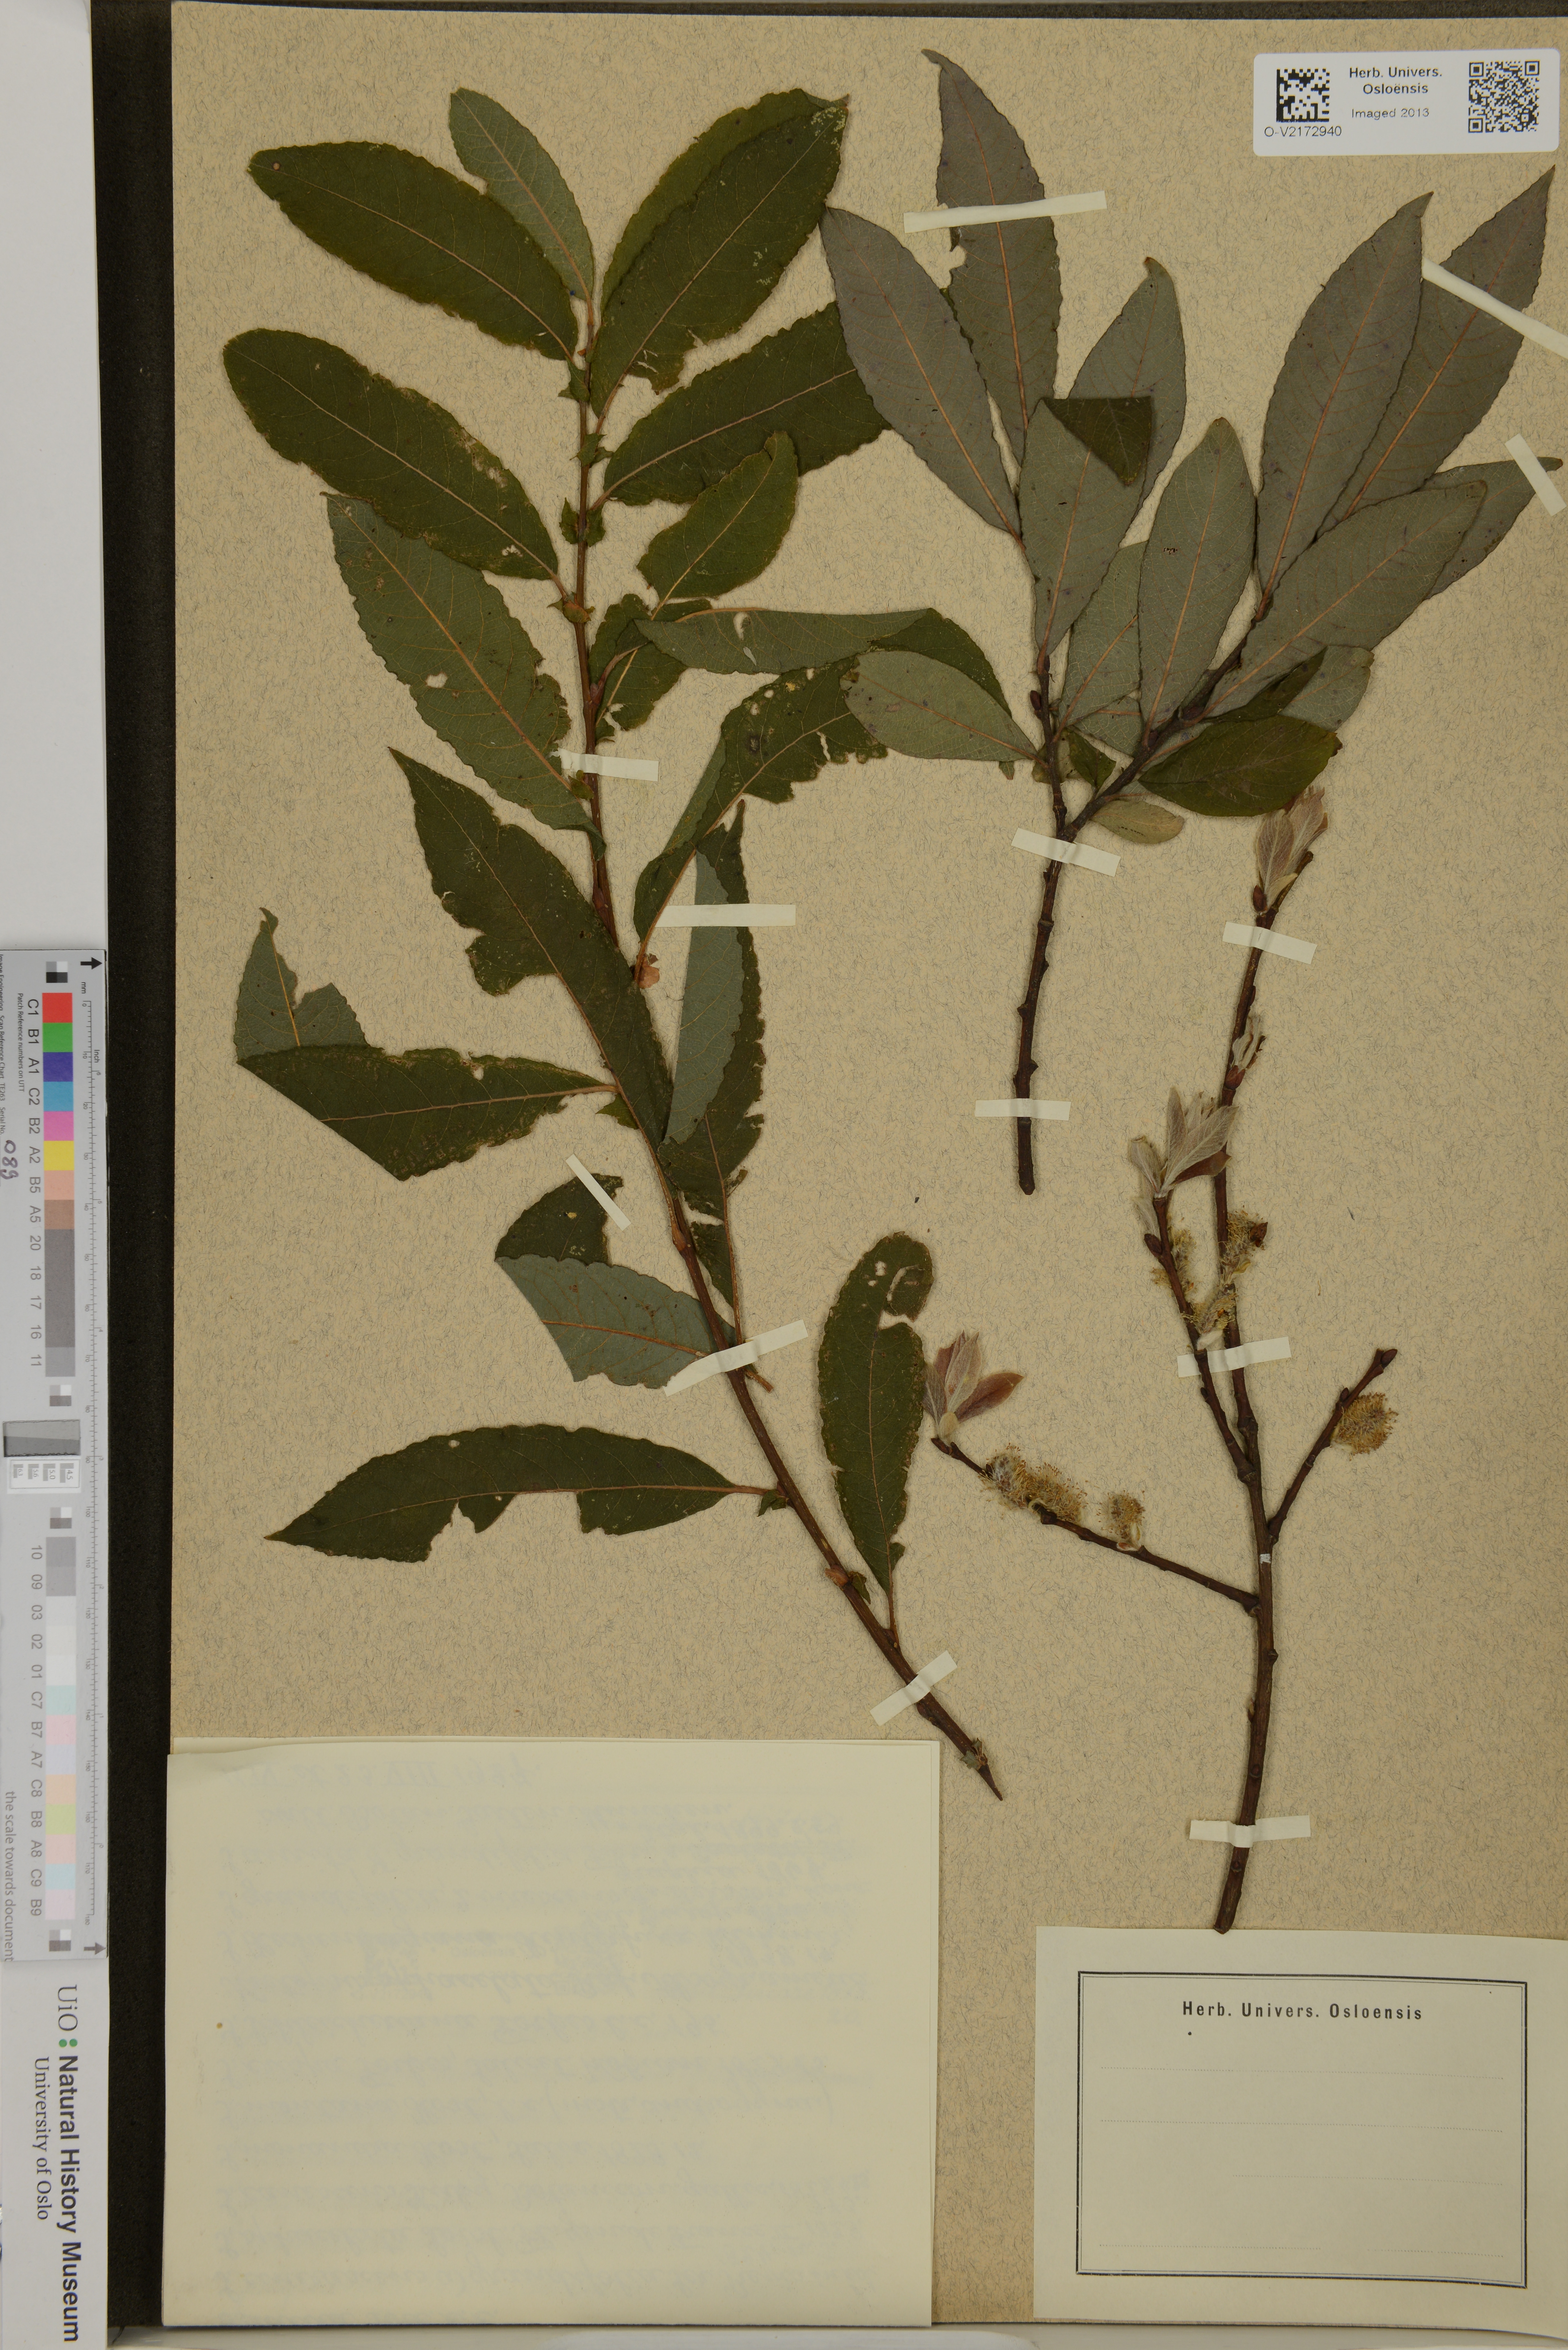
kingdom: Plantae
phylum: Tracheophyta
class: Magnoliopsida
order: Malpighiales
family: Salicaceae
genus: Salix
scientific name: Salix glauca
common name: Glaucous willow
